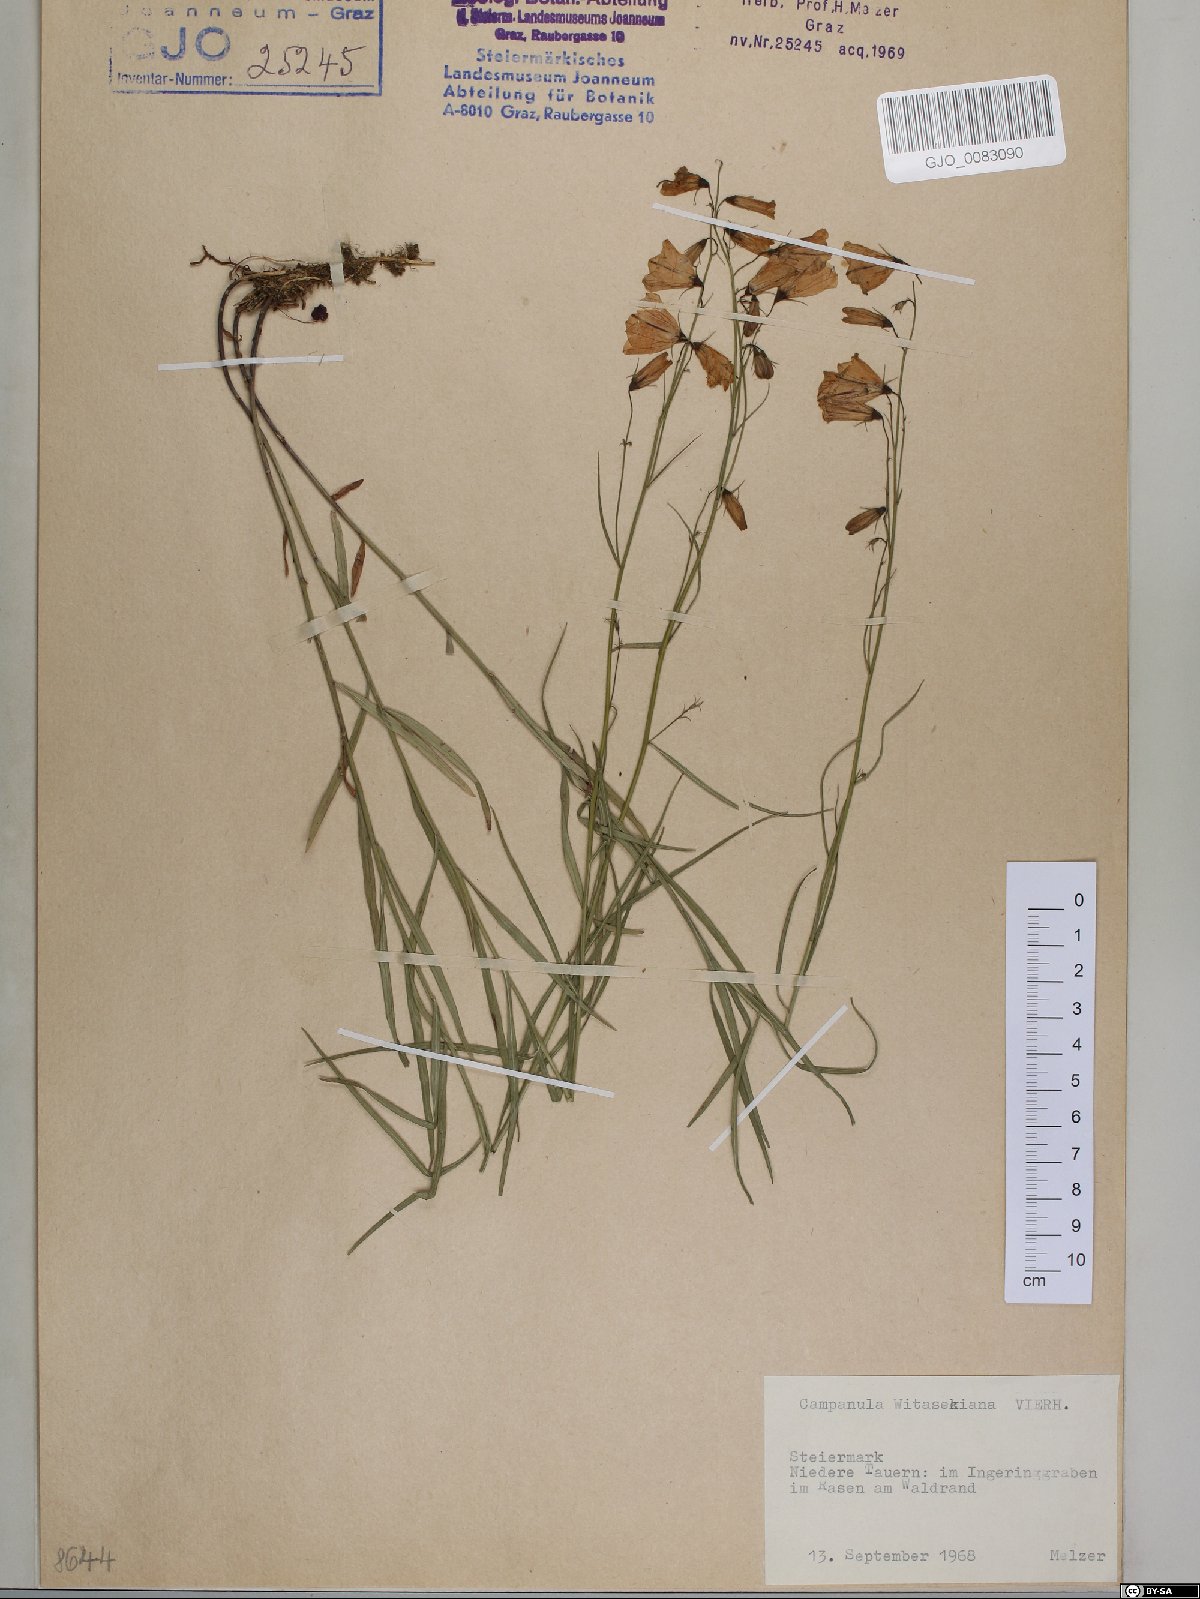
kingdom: Plantae
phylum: Tracheophyta
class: Magnoliopsida
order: Asterales
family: Campanulaceae
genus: Campanula
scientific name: Campanula witasekiana
